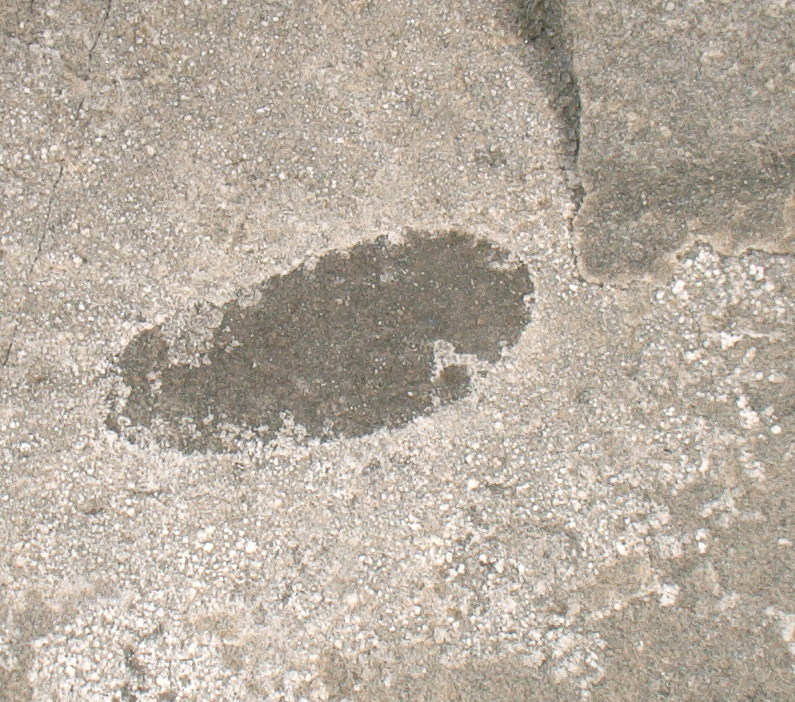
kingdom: Animalia
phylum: Arthropoda
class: Insecta
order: Lepidoptera
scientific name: Lepidoptera
